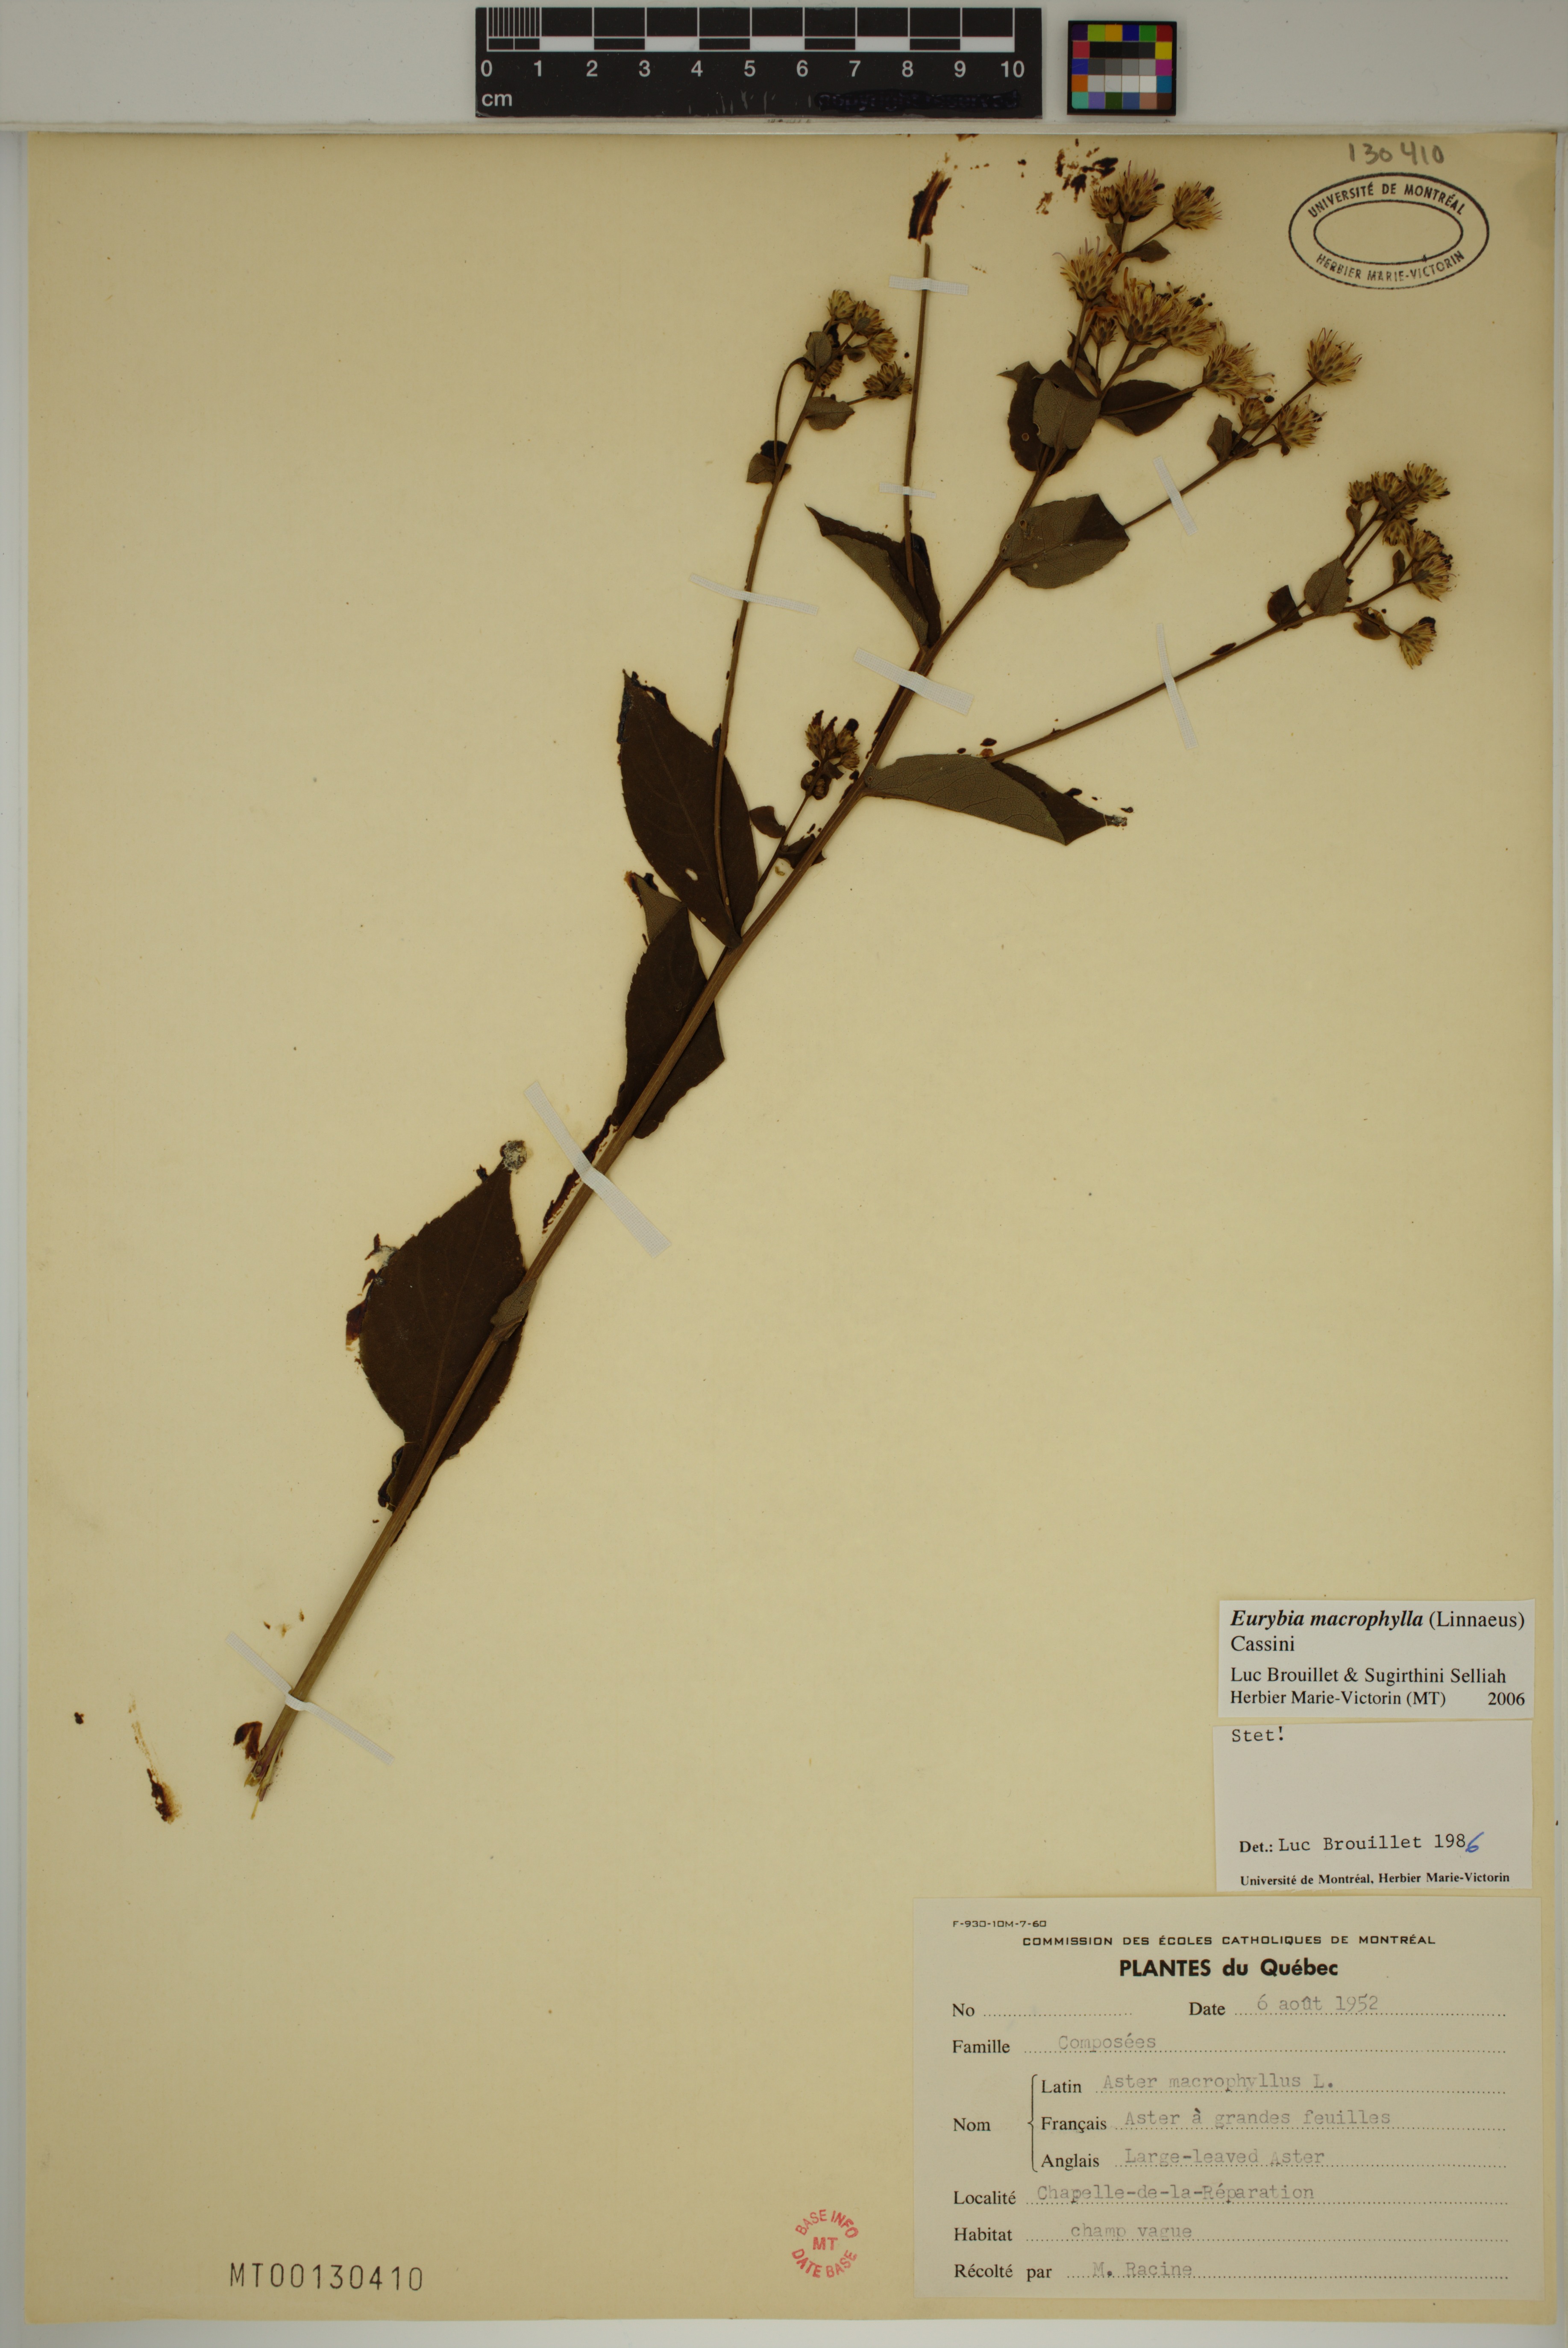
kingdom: Plantae
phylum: Tracheophyta
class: Magnoliopsida
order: Asterales
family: Asteraceae
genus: Eurybia
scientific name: Eurybia macrophylla
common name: Big-leaved aster
